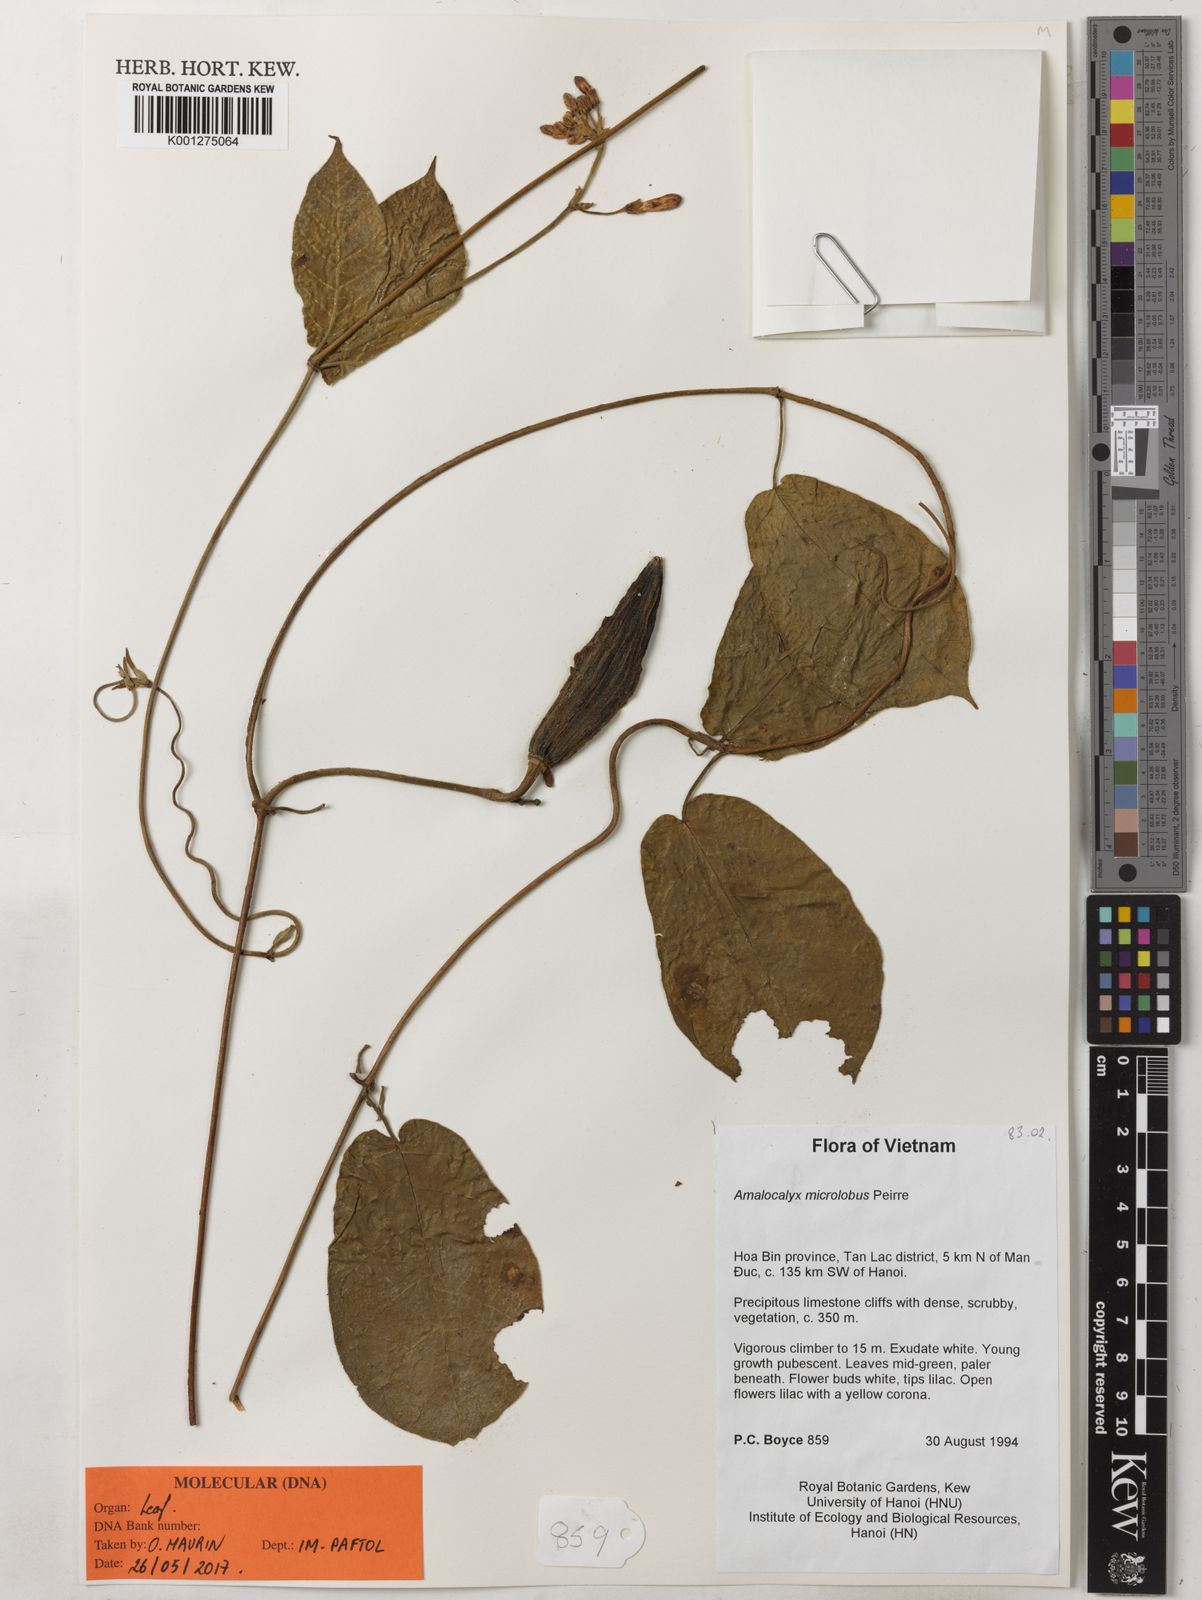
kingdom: Plantae
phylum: Tracheophyta
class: Magnoliopsida
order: Gentianales
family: Apocynaceae
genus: Amalocalyx
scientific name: Amalocalyx
